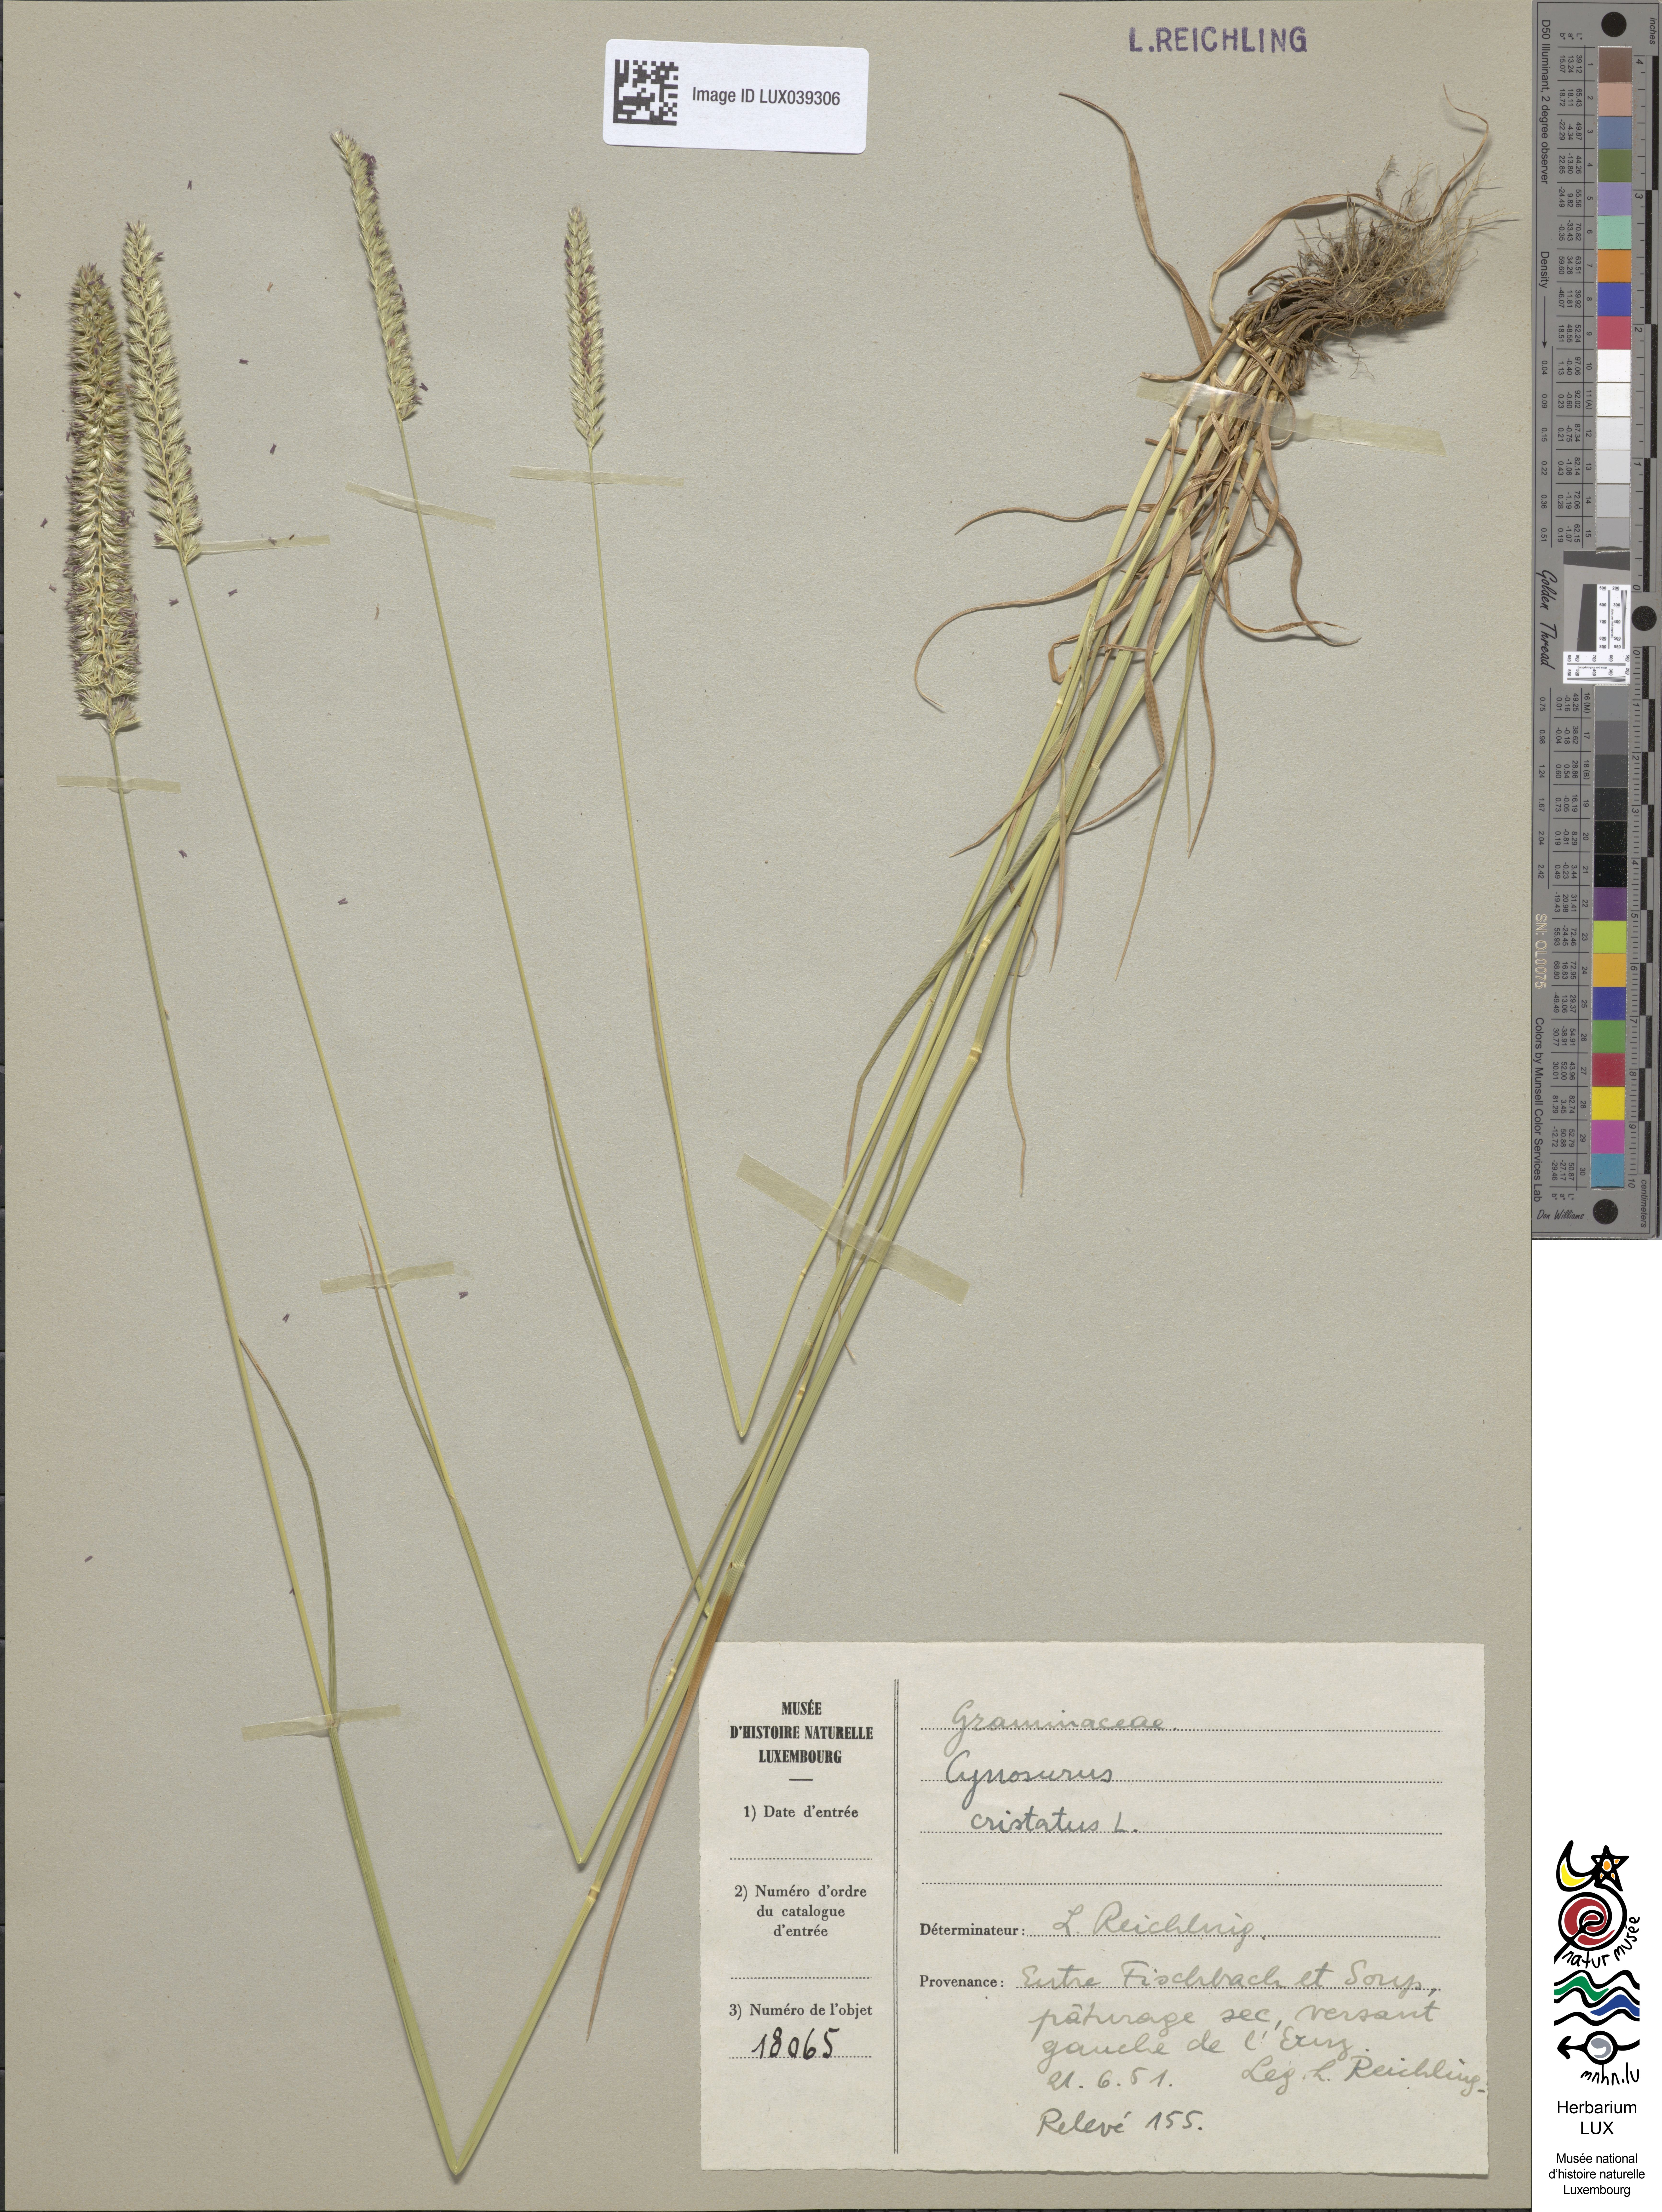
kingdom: Plantae
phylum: Tracheophyta
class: Liliopsida
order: Poales
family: Poaceae
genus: Cynosurus
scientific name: Cynosurus cristatus
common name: Crested dog's-tail
